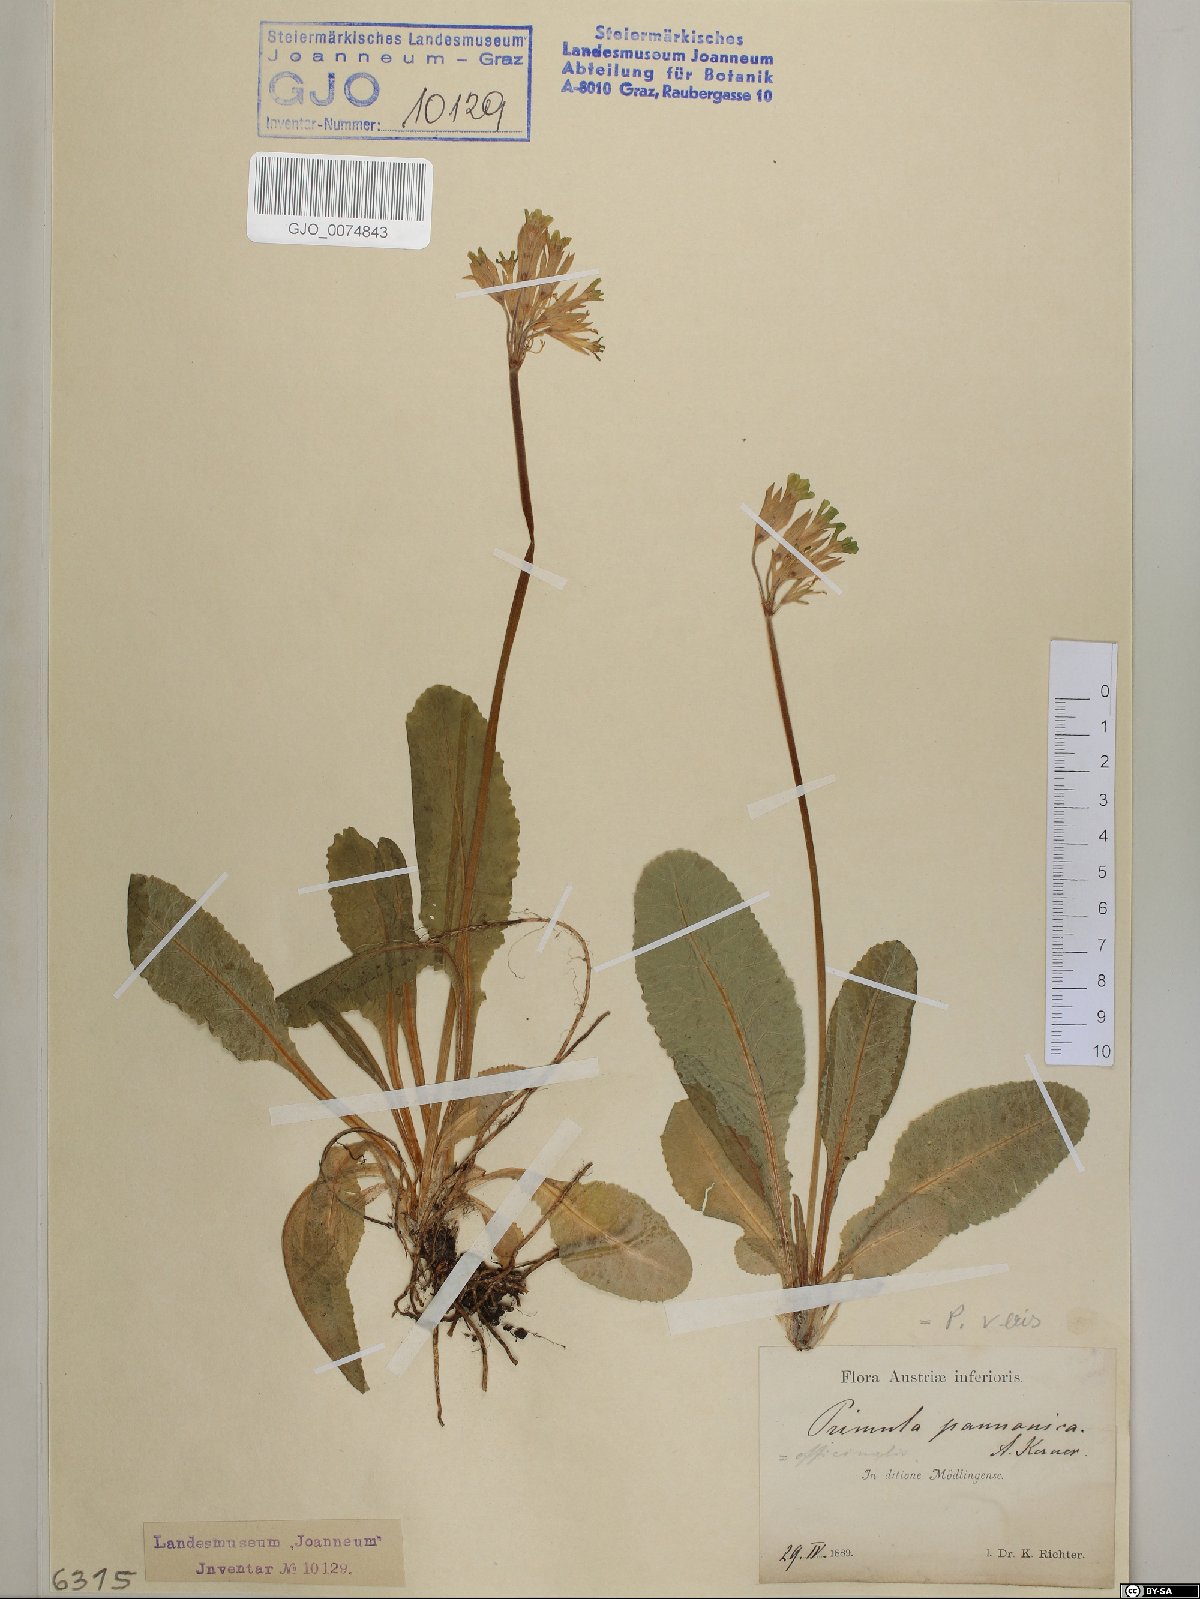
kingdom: Plantae
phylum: Tracheophyta
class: Magnoliopsida
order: Ericales
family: Primulaceae
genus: Primula
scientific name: Primula veris
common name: Cowslip
